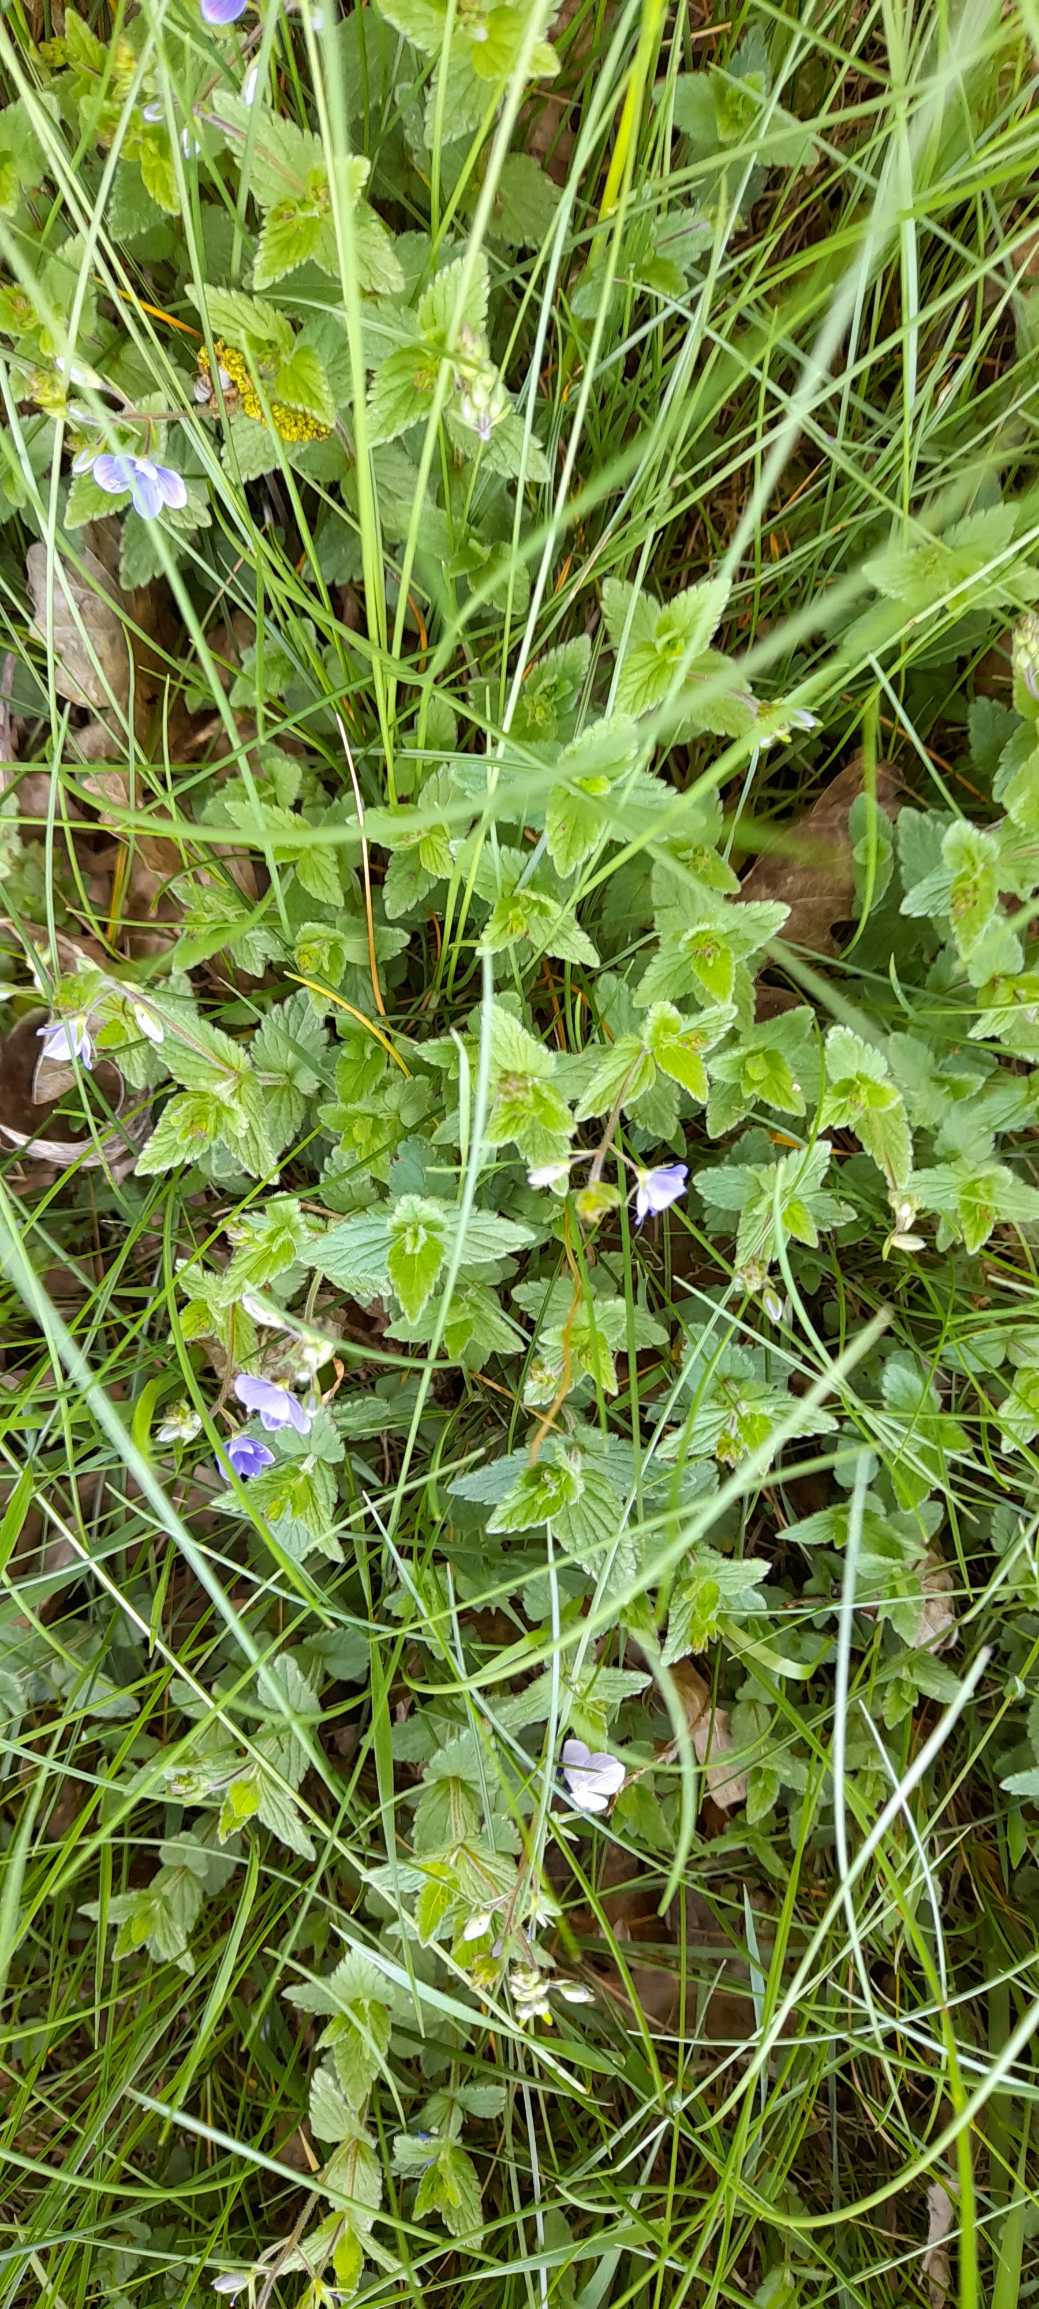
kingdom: Plantae
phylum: Tracheophyta
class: Magnoliopsida
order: Lamiales
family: Plantaginaceae
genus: Veronica
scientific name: Veronica chamaedrys
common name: Tveskægget ærenpris
